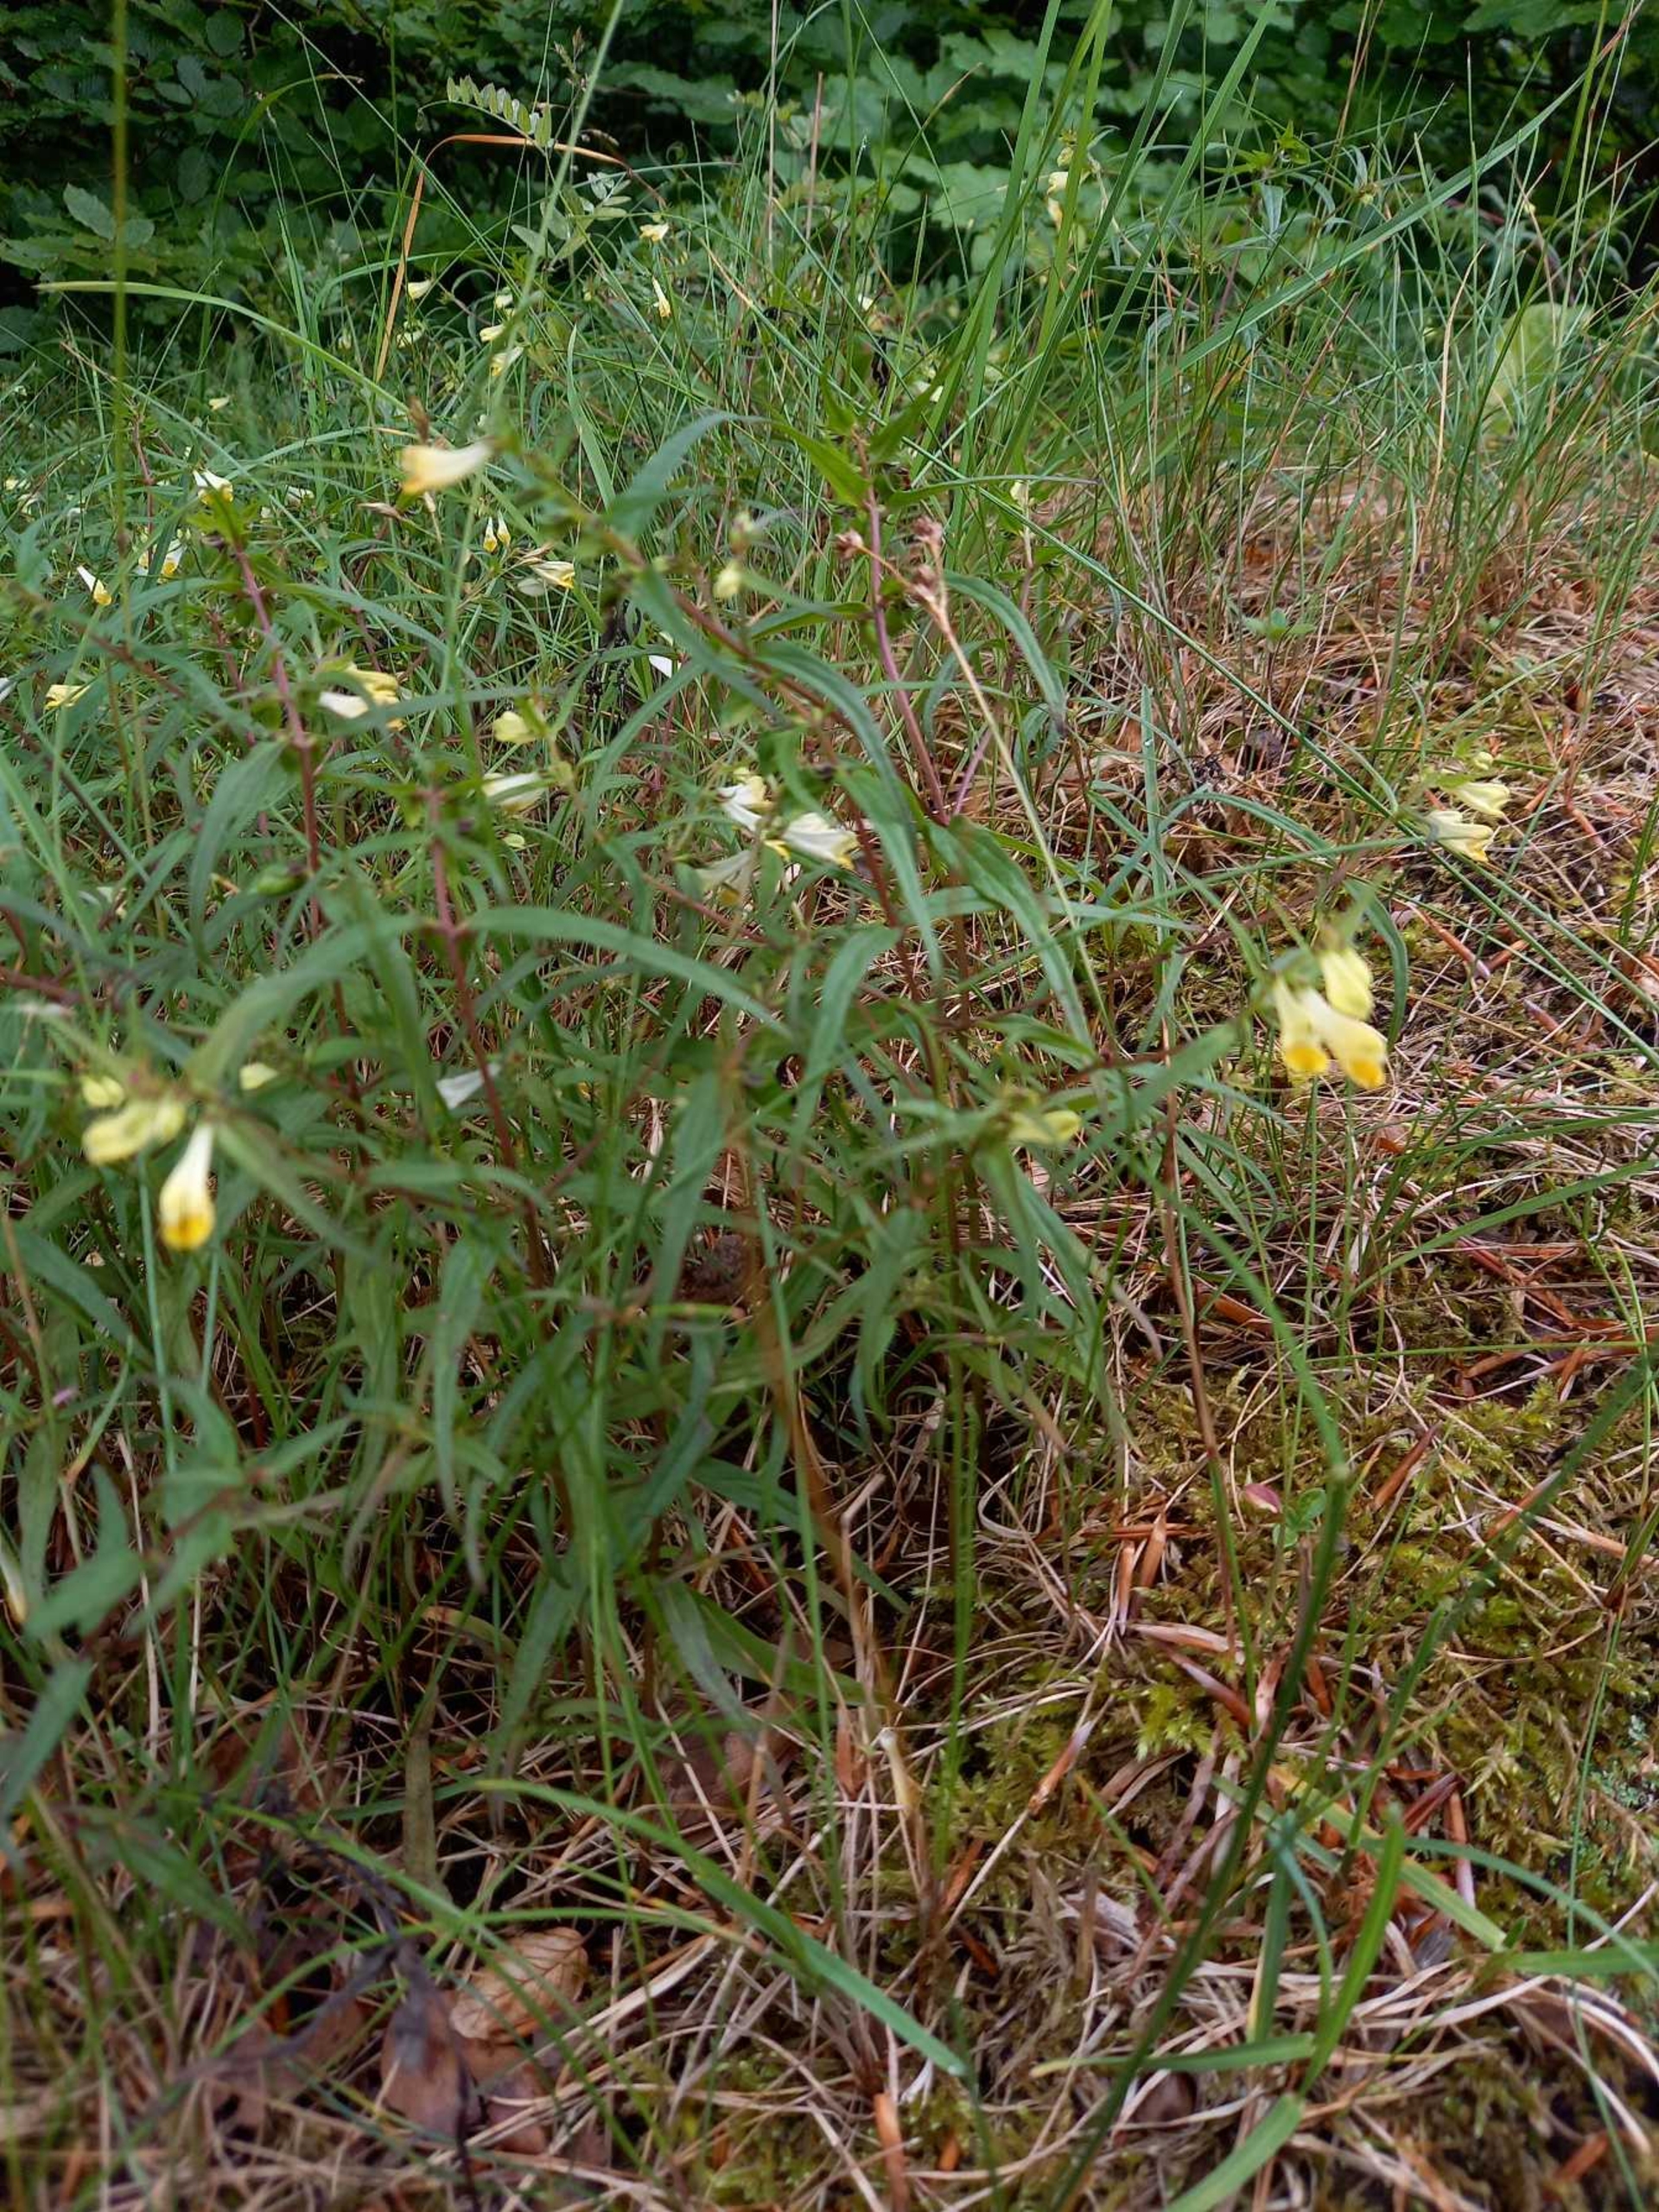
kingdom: Plantae
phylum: Tracheophyta
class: Magnoliopsida
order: Lamiales
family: Orobanchaceae
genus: Melampyrum
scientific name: Melampyrum pratense
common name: Almindelig kohvede
